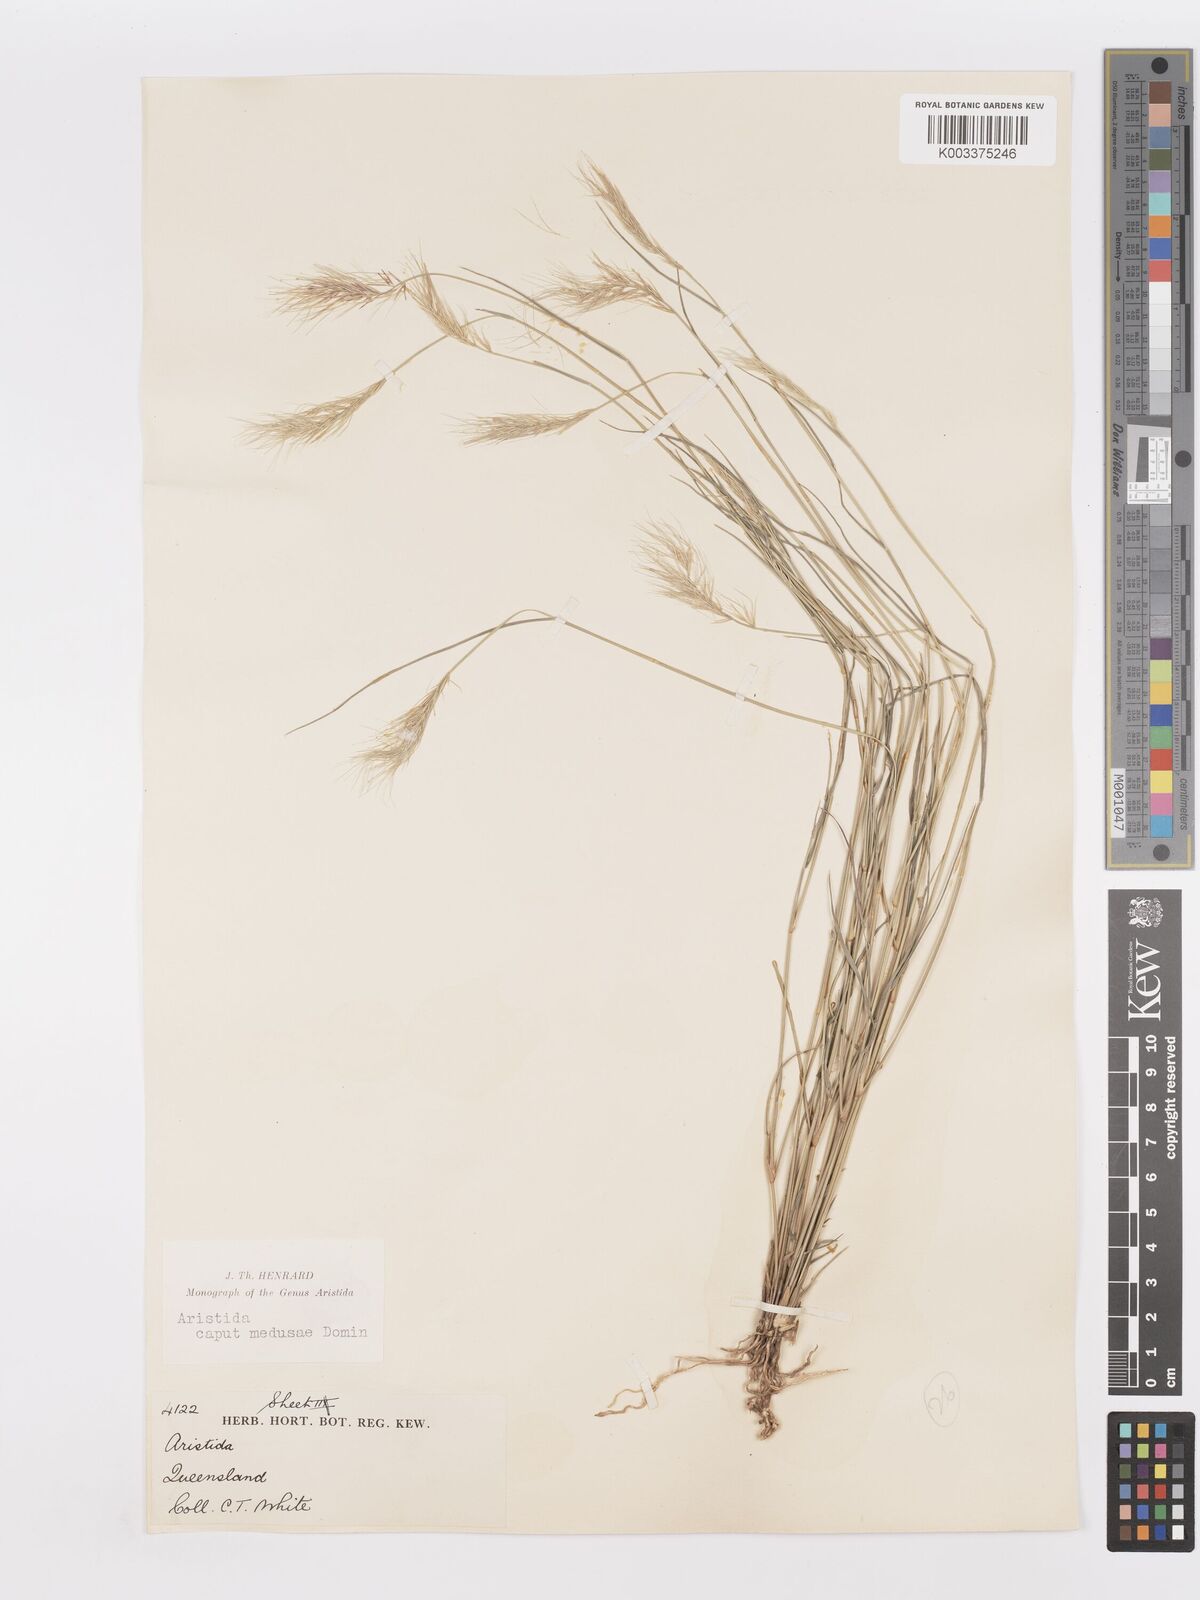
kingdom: Plantae
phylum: Tracheophyta
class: Liliopsida
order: Poales
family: Poaceae
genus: Aristida
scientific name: Aristida caput-medusae
